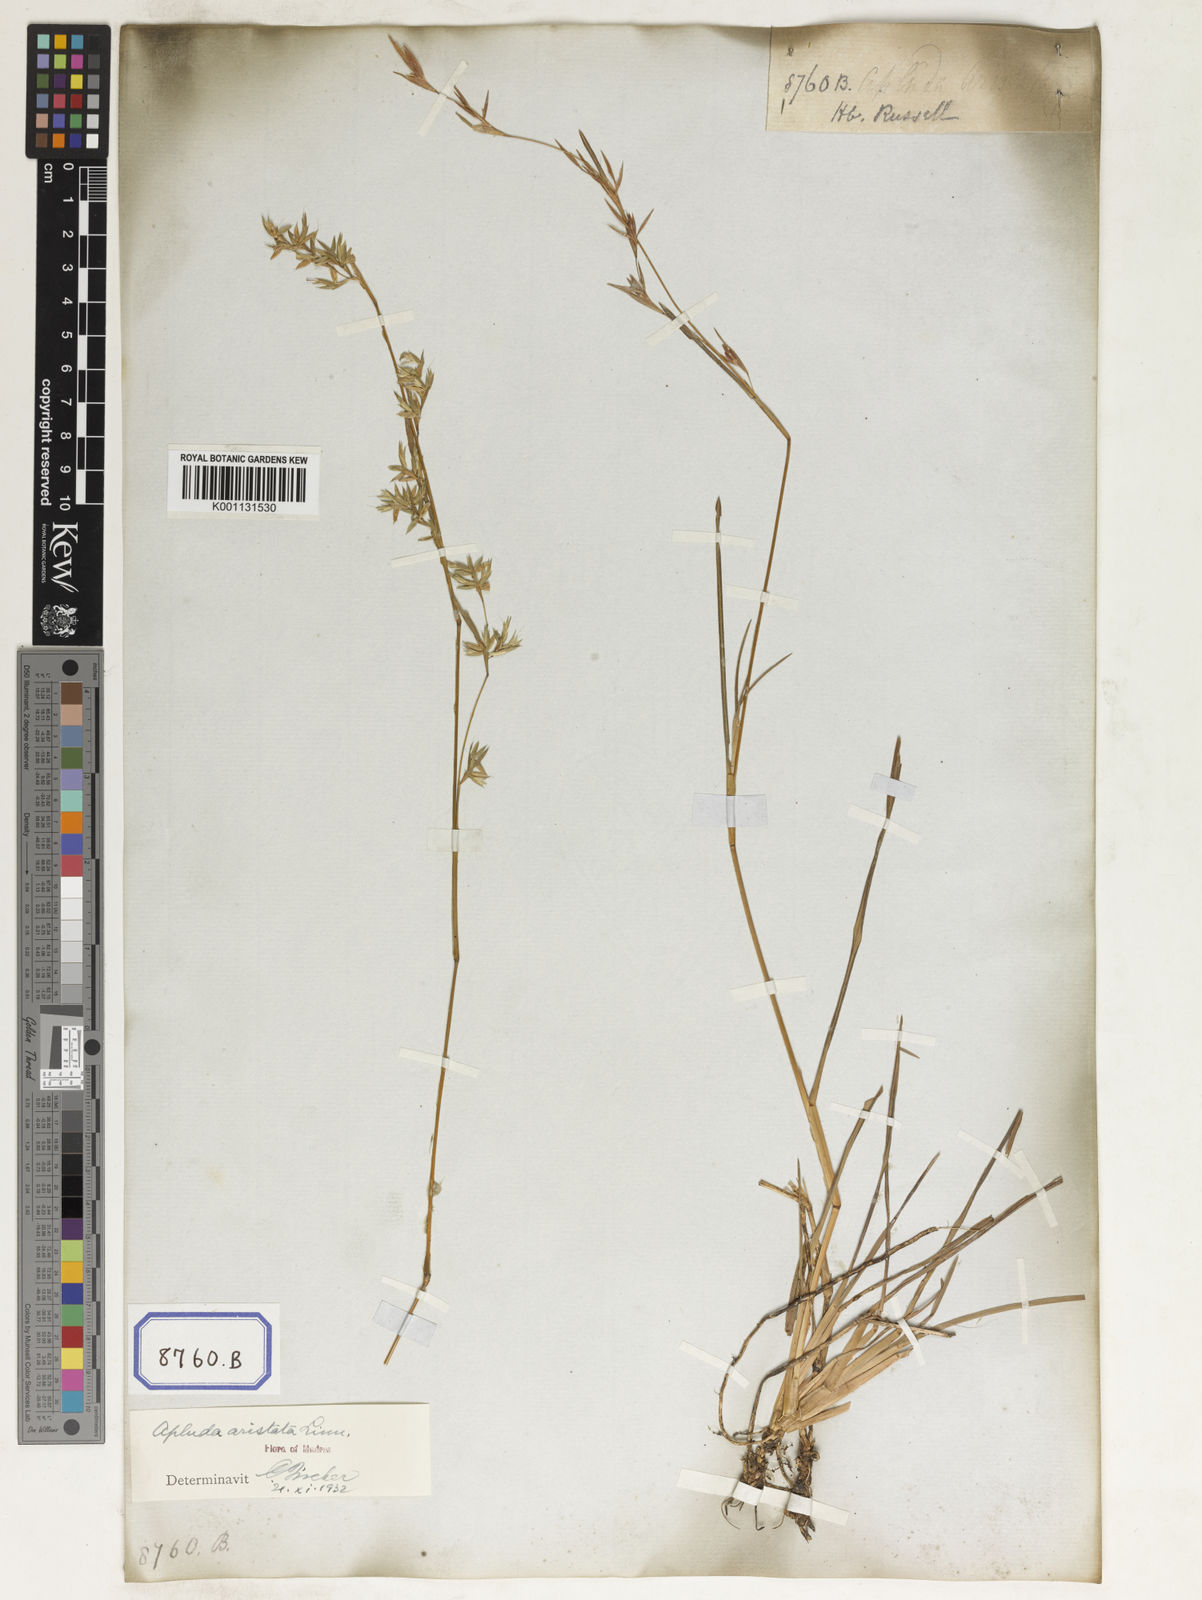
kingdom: Plantae
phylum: Tracheophyta
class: Liliopsida
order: Poales
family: Poaceae
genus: Apluda
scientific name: Apluda
